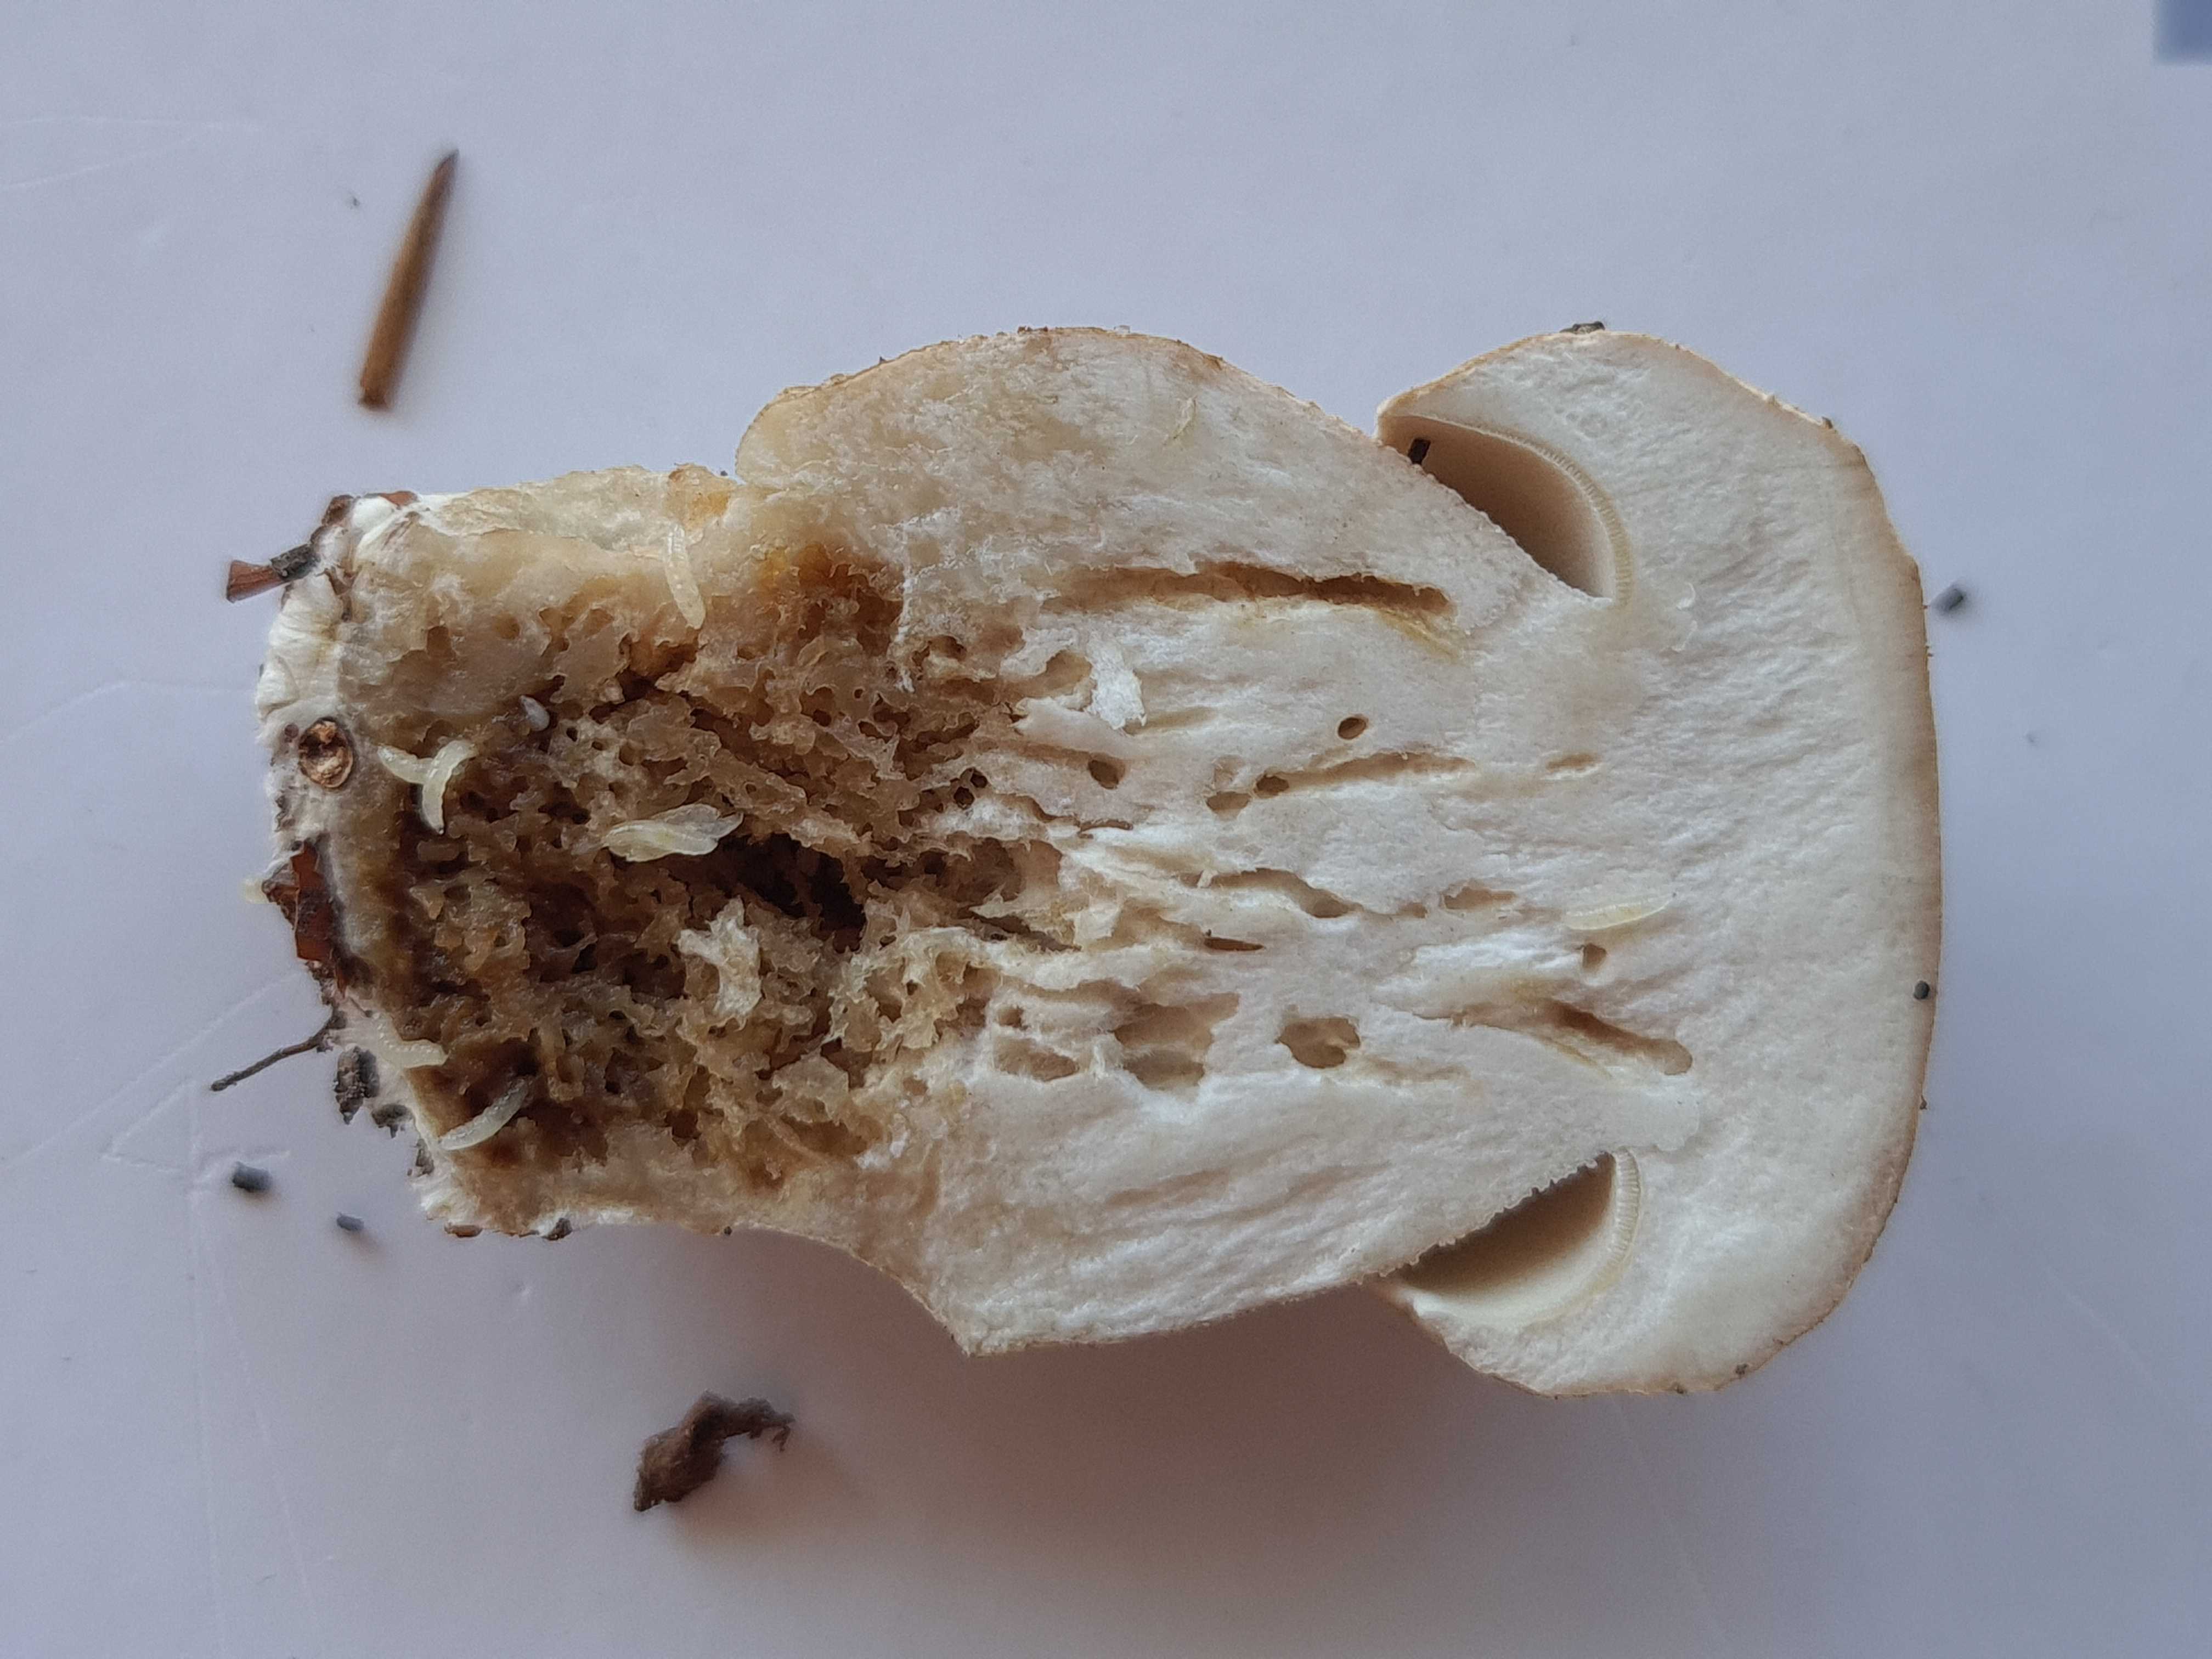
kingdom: Fungi
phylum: Basidiomycota
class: Agaricomycetes
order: Boletales
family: Boletaceae
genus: Boletus
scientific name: Boletus reticulatus
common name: sommer-rørhat
